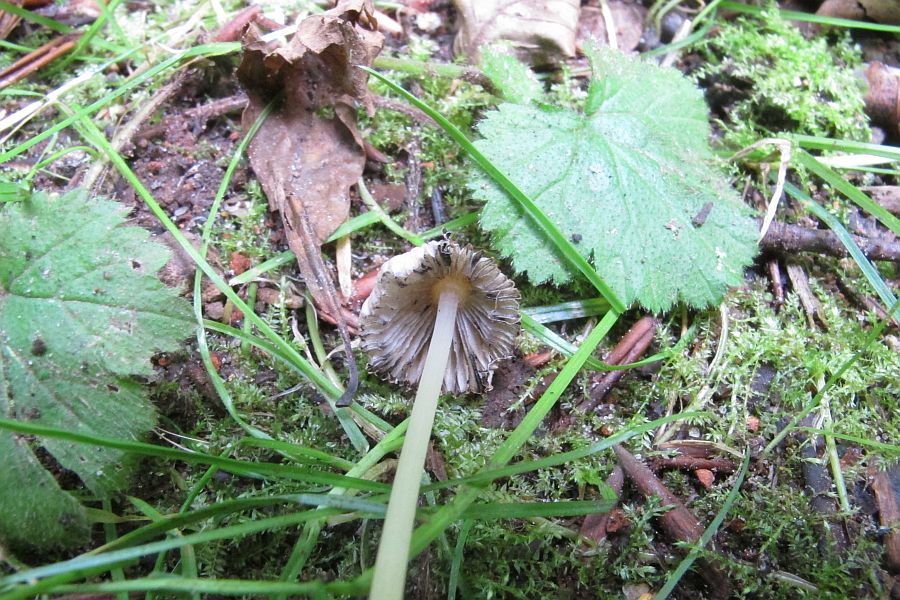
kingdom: Fungi
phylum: Basidiomycota
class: Agaricomycetes
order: Agaricales
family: Psathyrellaceae
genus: Parasola
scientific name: Parasola kuehneri
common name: skygge-hjulhat
